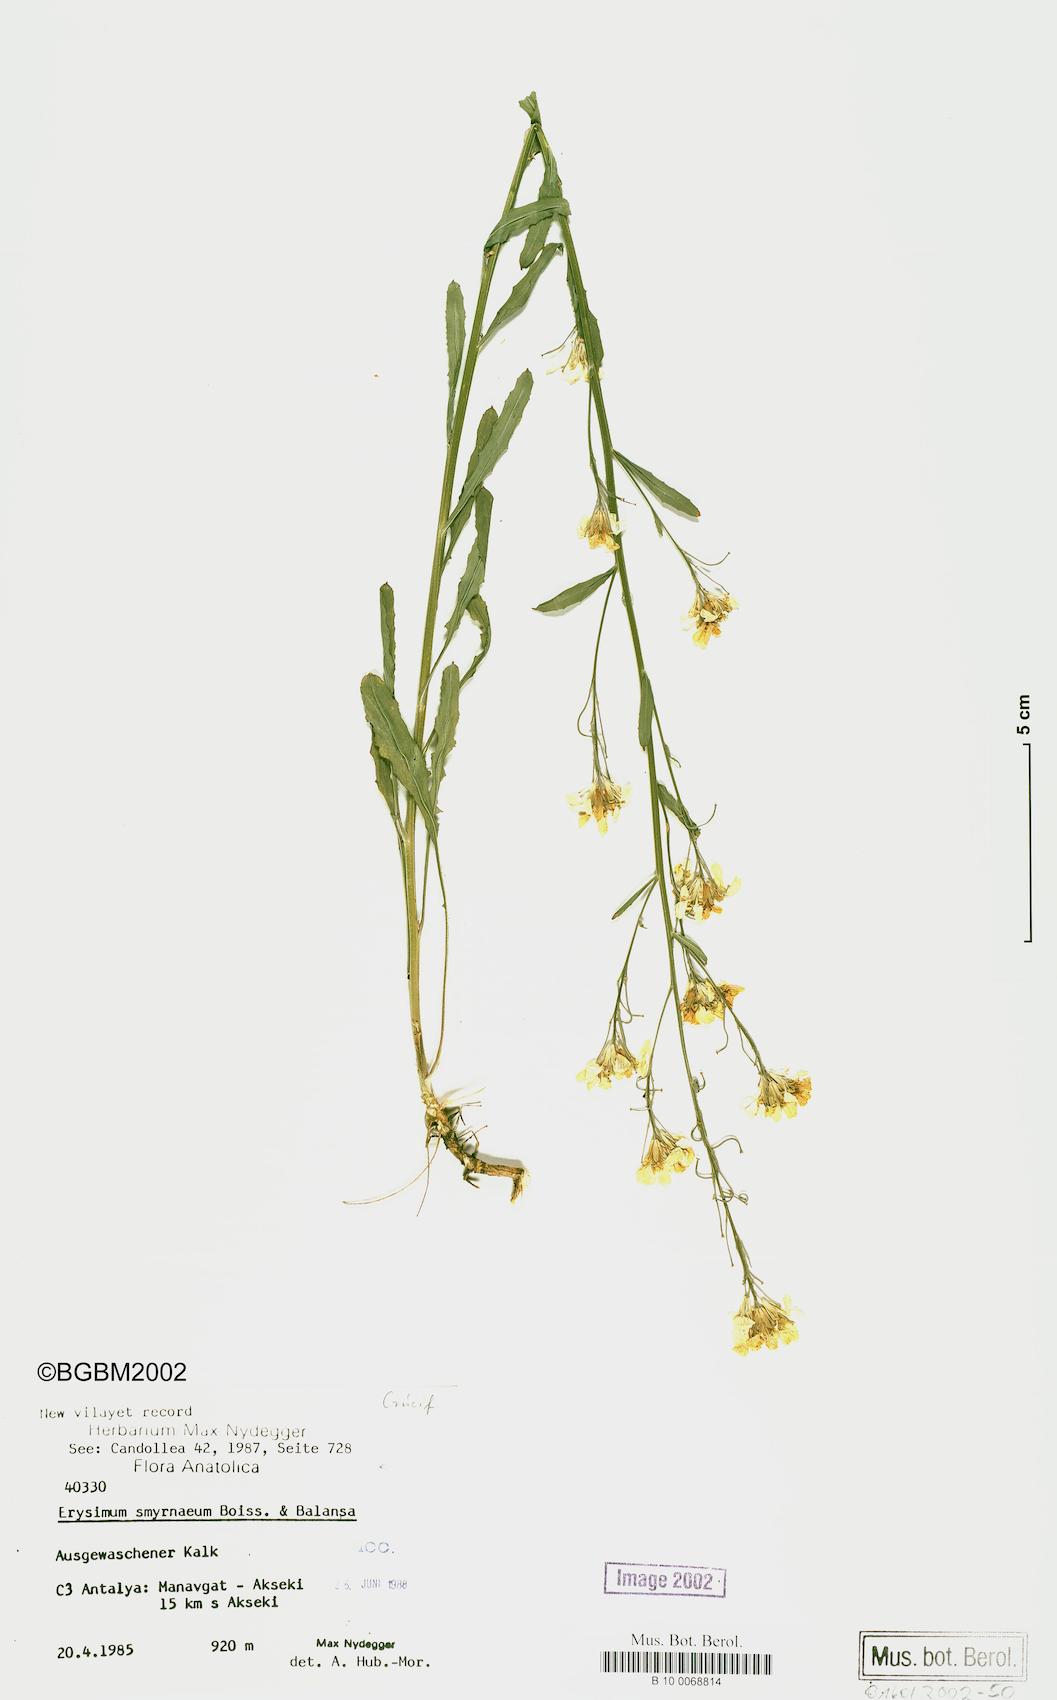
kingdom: Plantae
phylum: Tracheophyta
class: Magnoliopsida
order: Brassicales
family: Brassicaceae
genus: Erysimum
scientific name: Erysimum smyrnaeum
